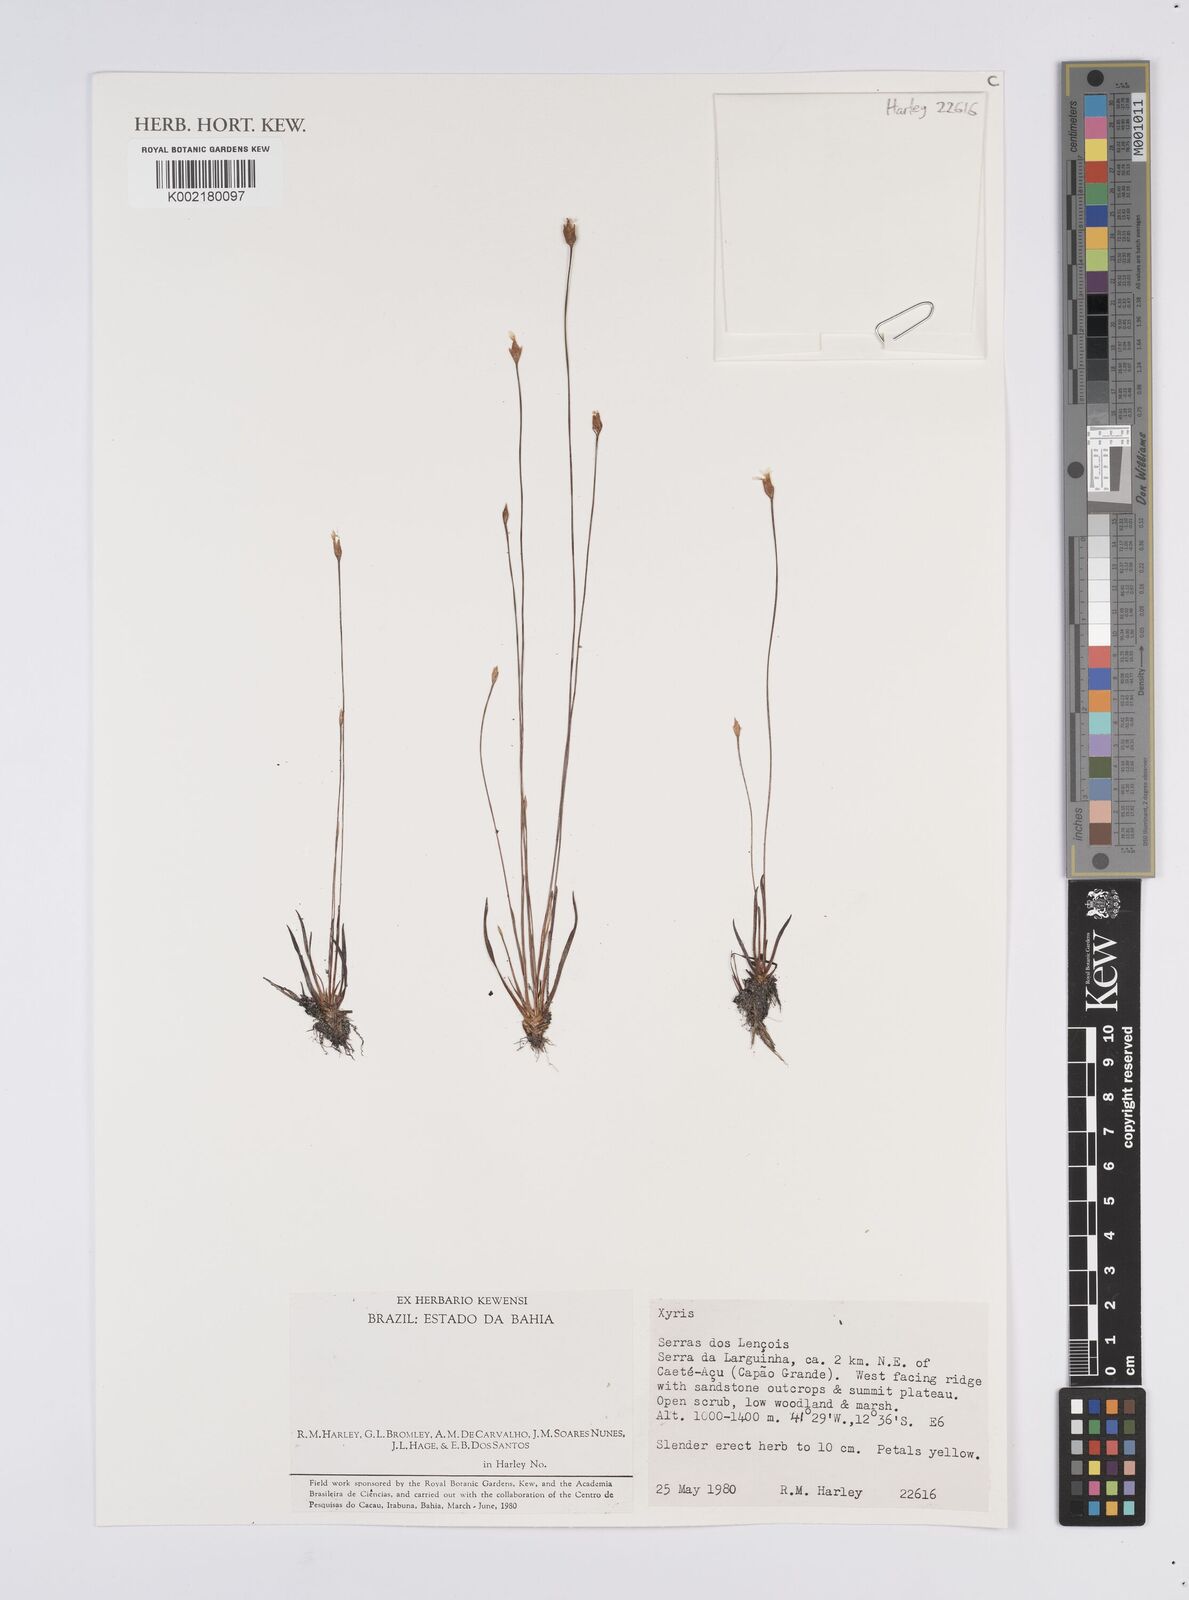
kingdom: Plantae
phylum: Tracheophyta
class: Liliopsida
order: Poales
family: Xyridaceae
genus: Xyris
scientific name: Xyris
